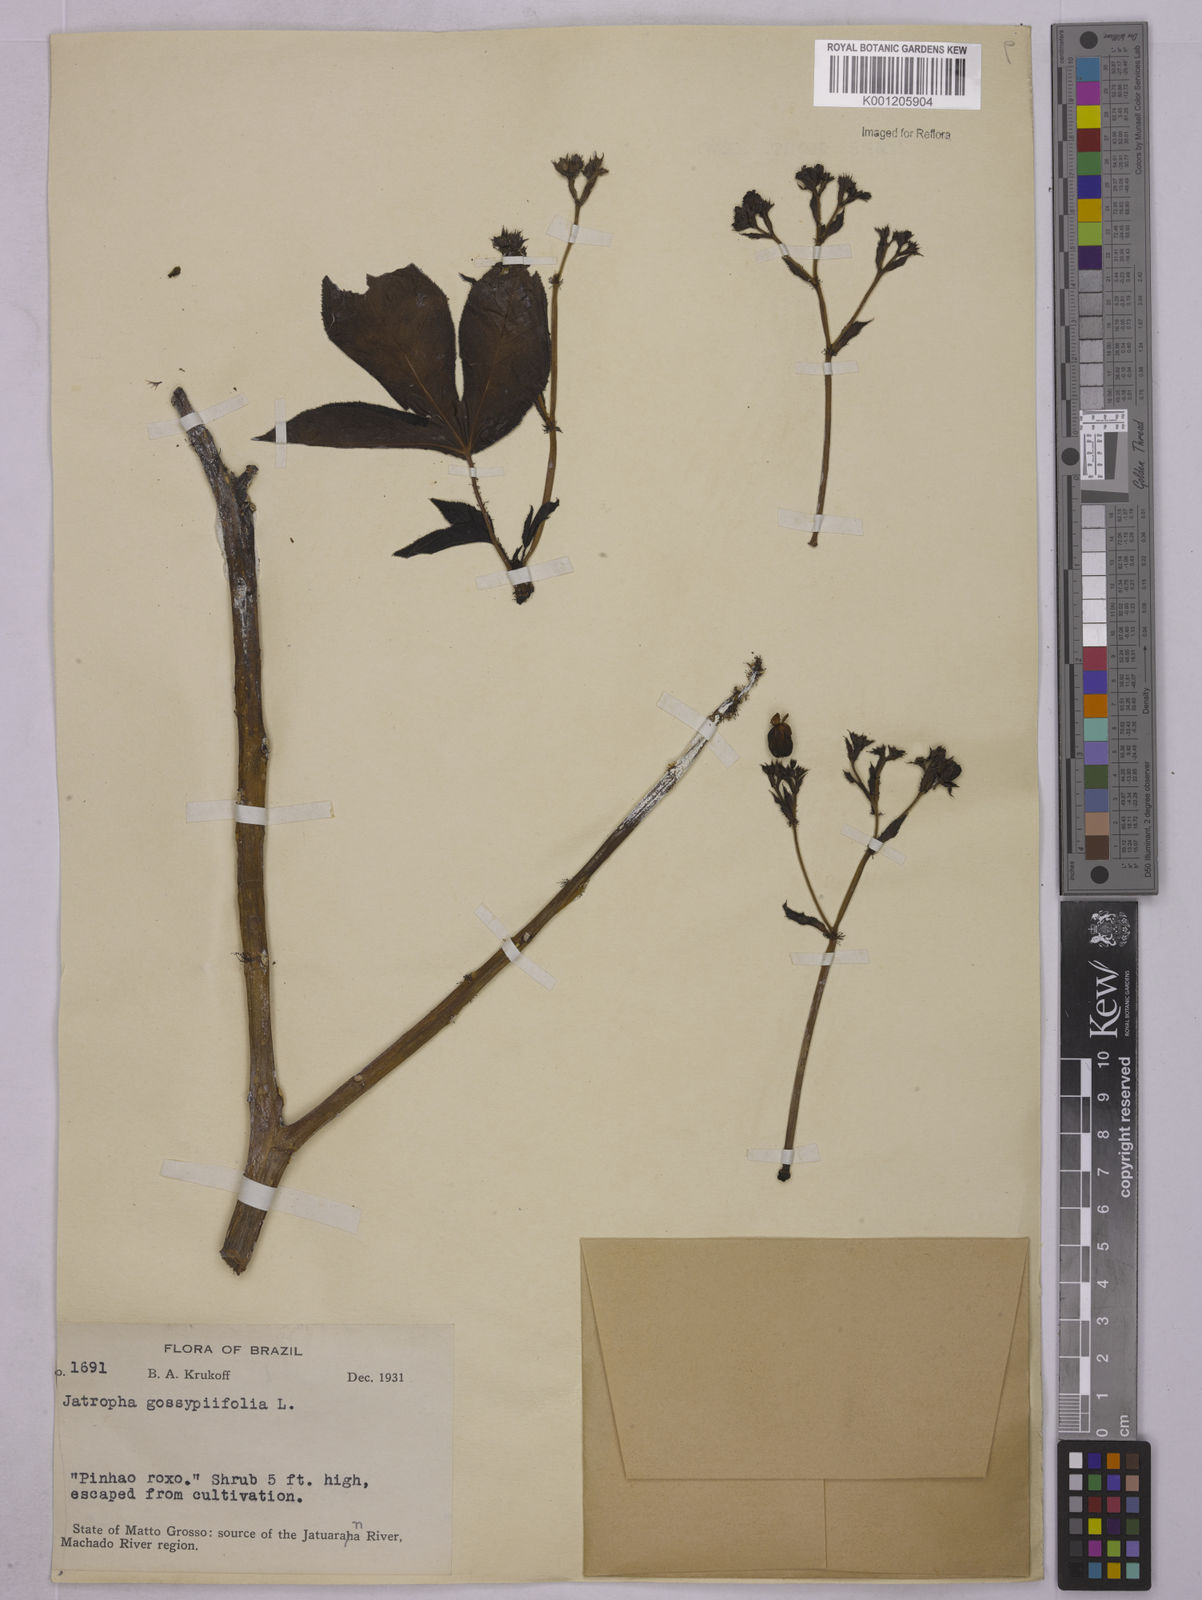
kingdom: Plantae
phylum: Tracheophyta
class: Magnoliopsida
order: Malpighiales
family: Euphorbiaceae
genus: Jatropha
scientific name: Jatropha gossypiifolia
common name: Bellyache bush
